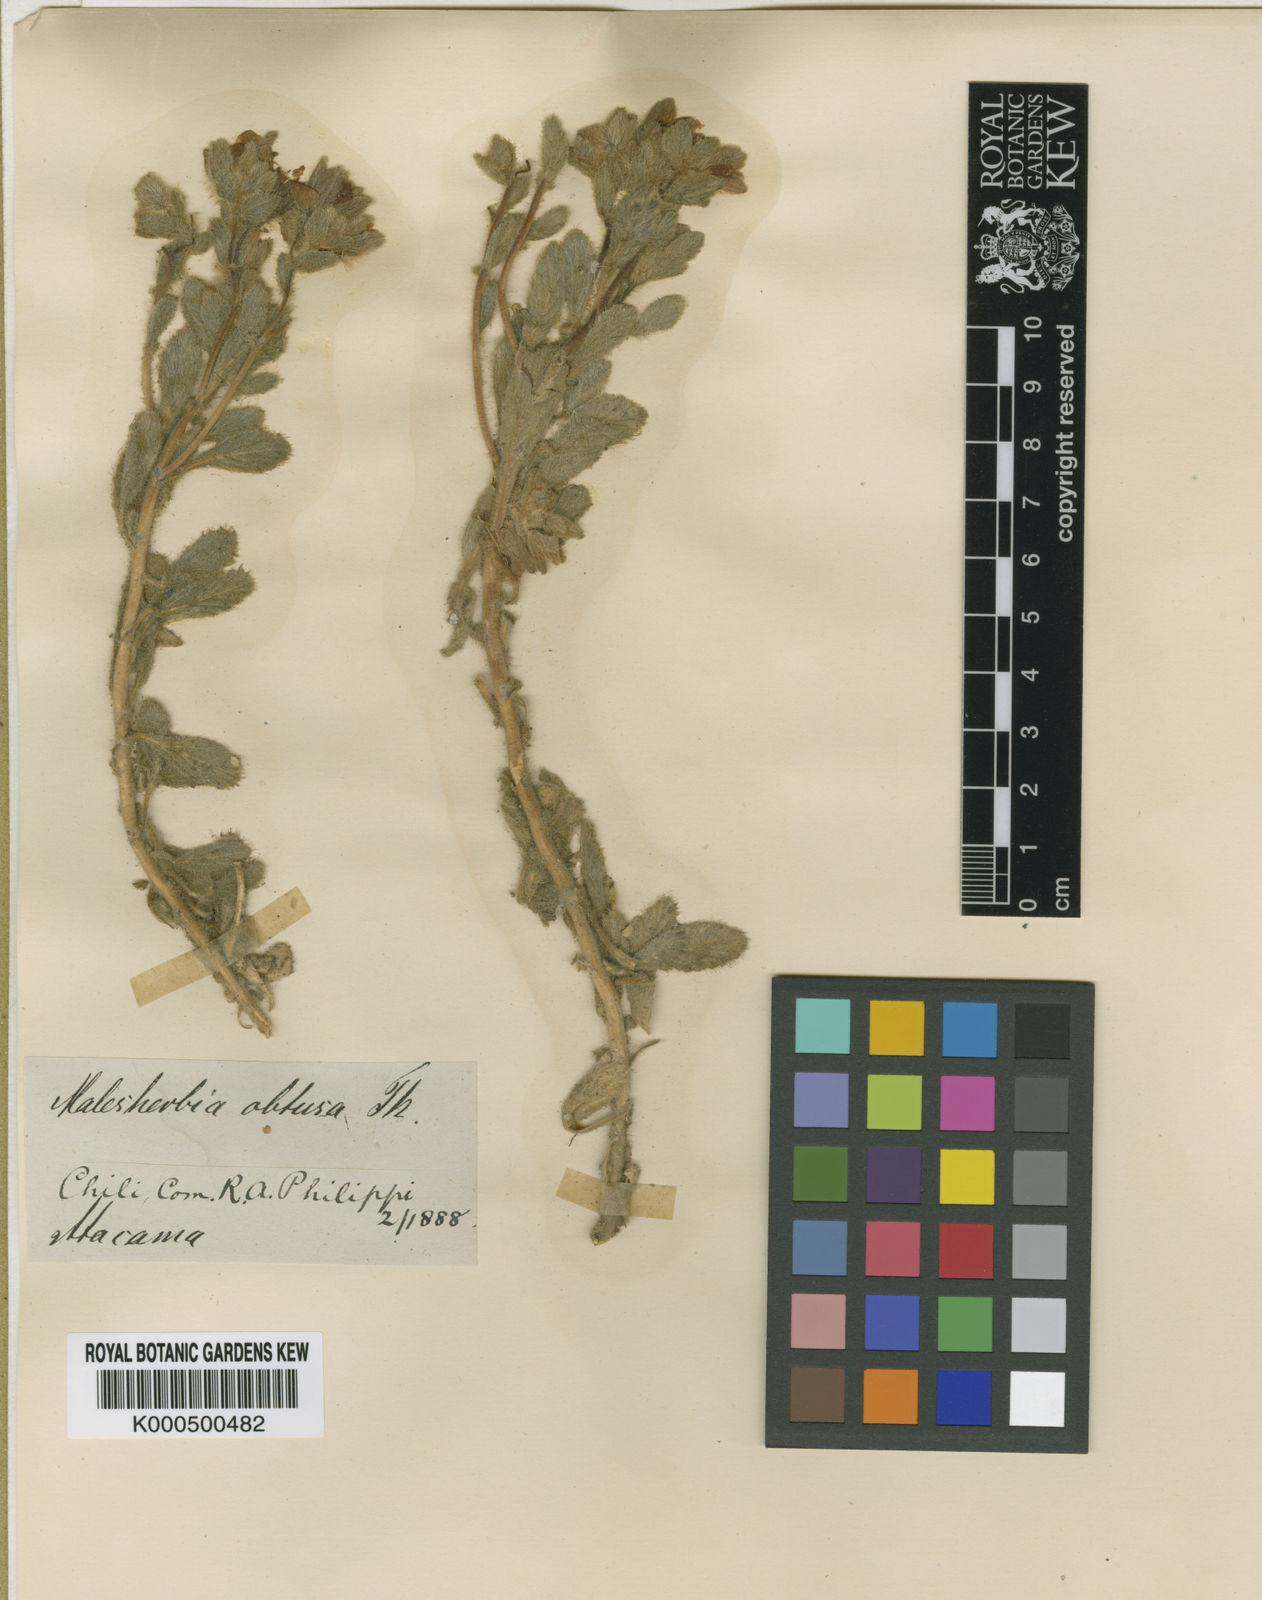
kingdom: Plantae
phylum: Tracheophyta
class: Magnoliopsida
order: Malpighiales
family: Malesherbiaceae
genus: Malesherbia
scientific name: Malesherbia obtusa
